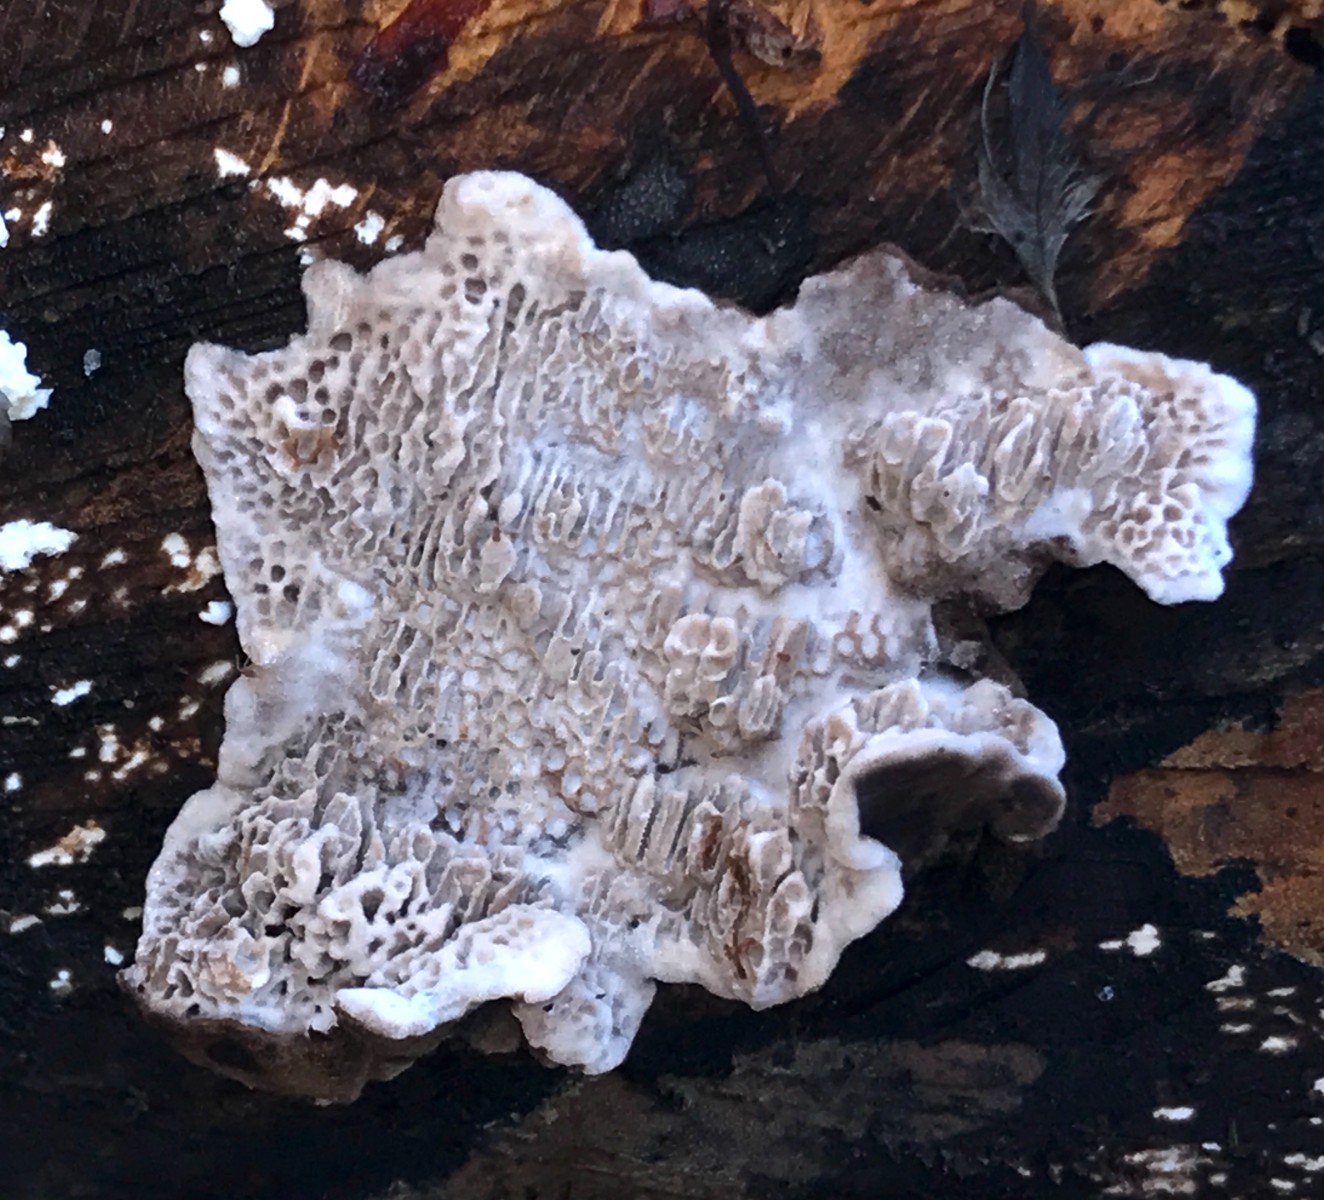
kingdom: Fungi
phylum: Basidiomycota
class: Agaricomycetes
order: Polyporales
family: Polyporaceae
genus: Podofomes
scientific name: Podofomes mollis
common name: blød begporesvamp
